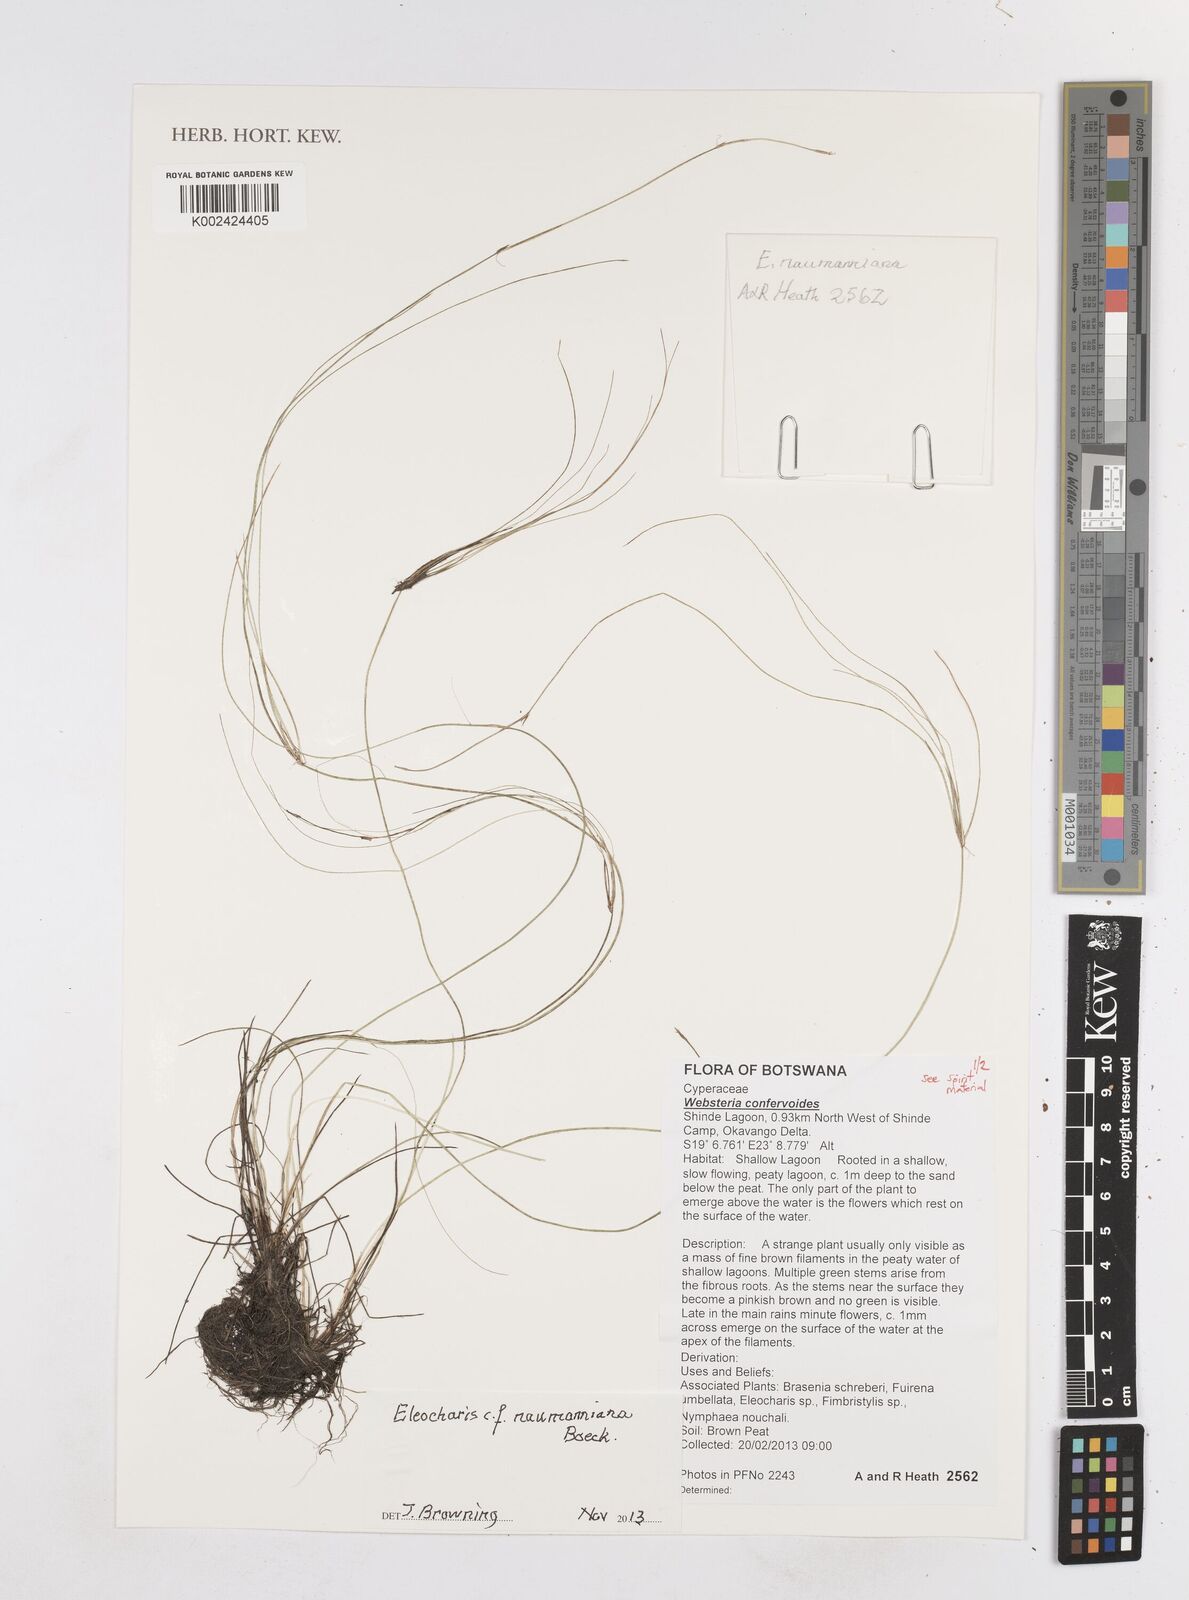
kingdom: Plantae
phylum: Tracheophyta
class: Liliopsida
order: Poales
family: Cyperaceae
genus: Eleocharis
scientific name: Eleocharis naumanniana
